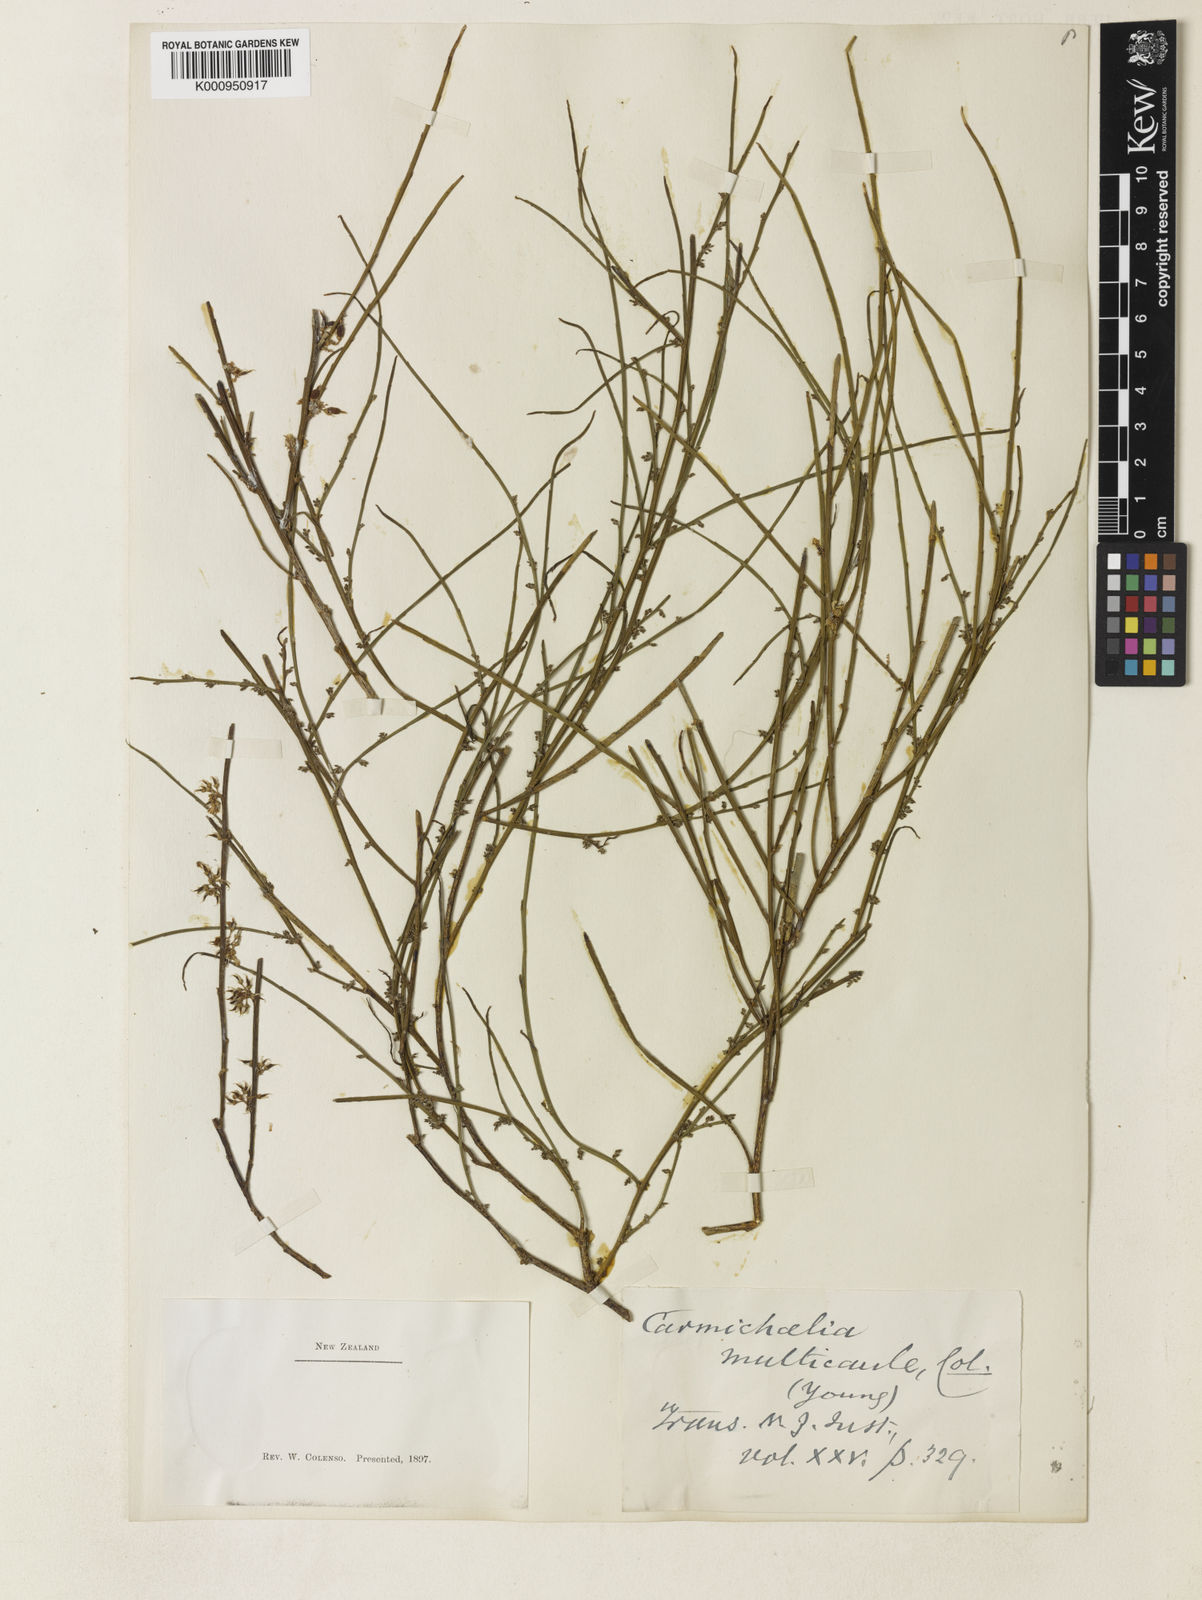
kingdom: Plantae
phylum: Tracheophyta
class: Magnoliopsida
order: Fabales
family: Fabaceae
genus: Carmichaelia
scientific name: Carmichaelia australis
